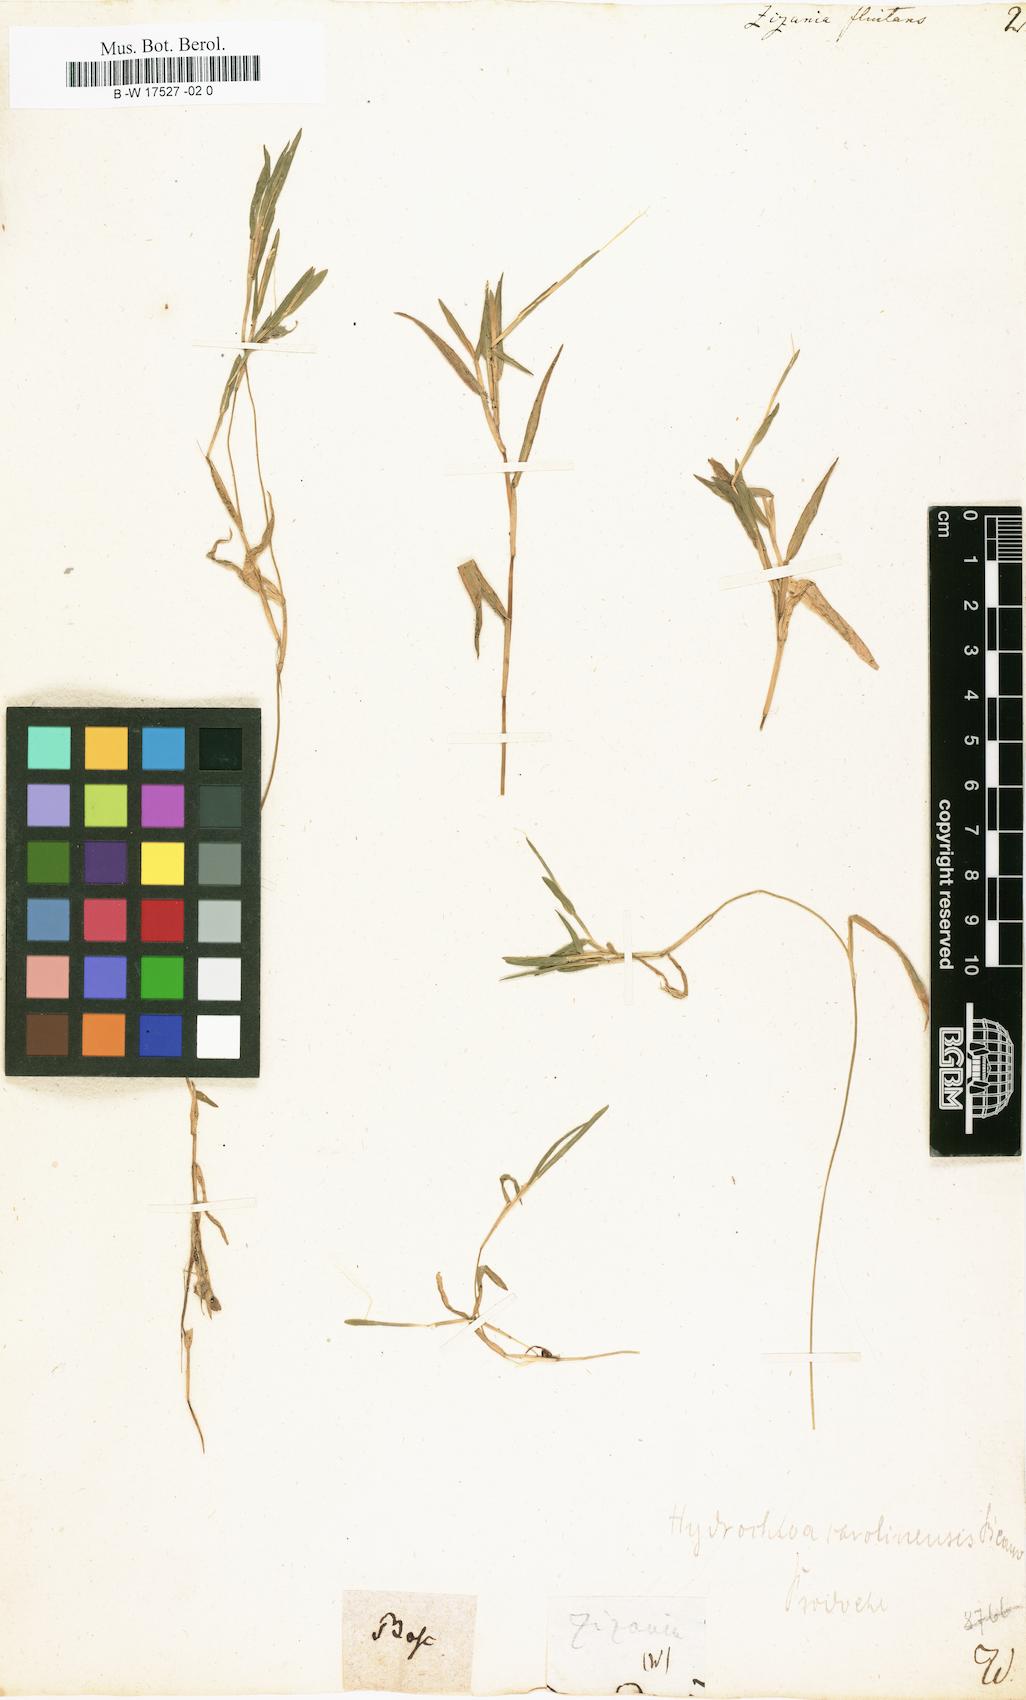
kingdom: Plantae
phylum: Tracheophyta
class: Liliopsida
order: Poales
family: Poaceae
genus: Luziola
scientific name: Luziola fluitans
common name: Silverleaf grass
